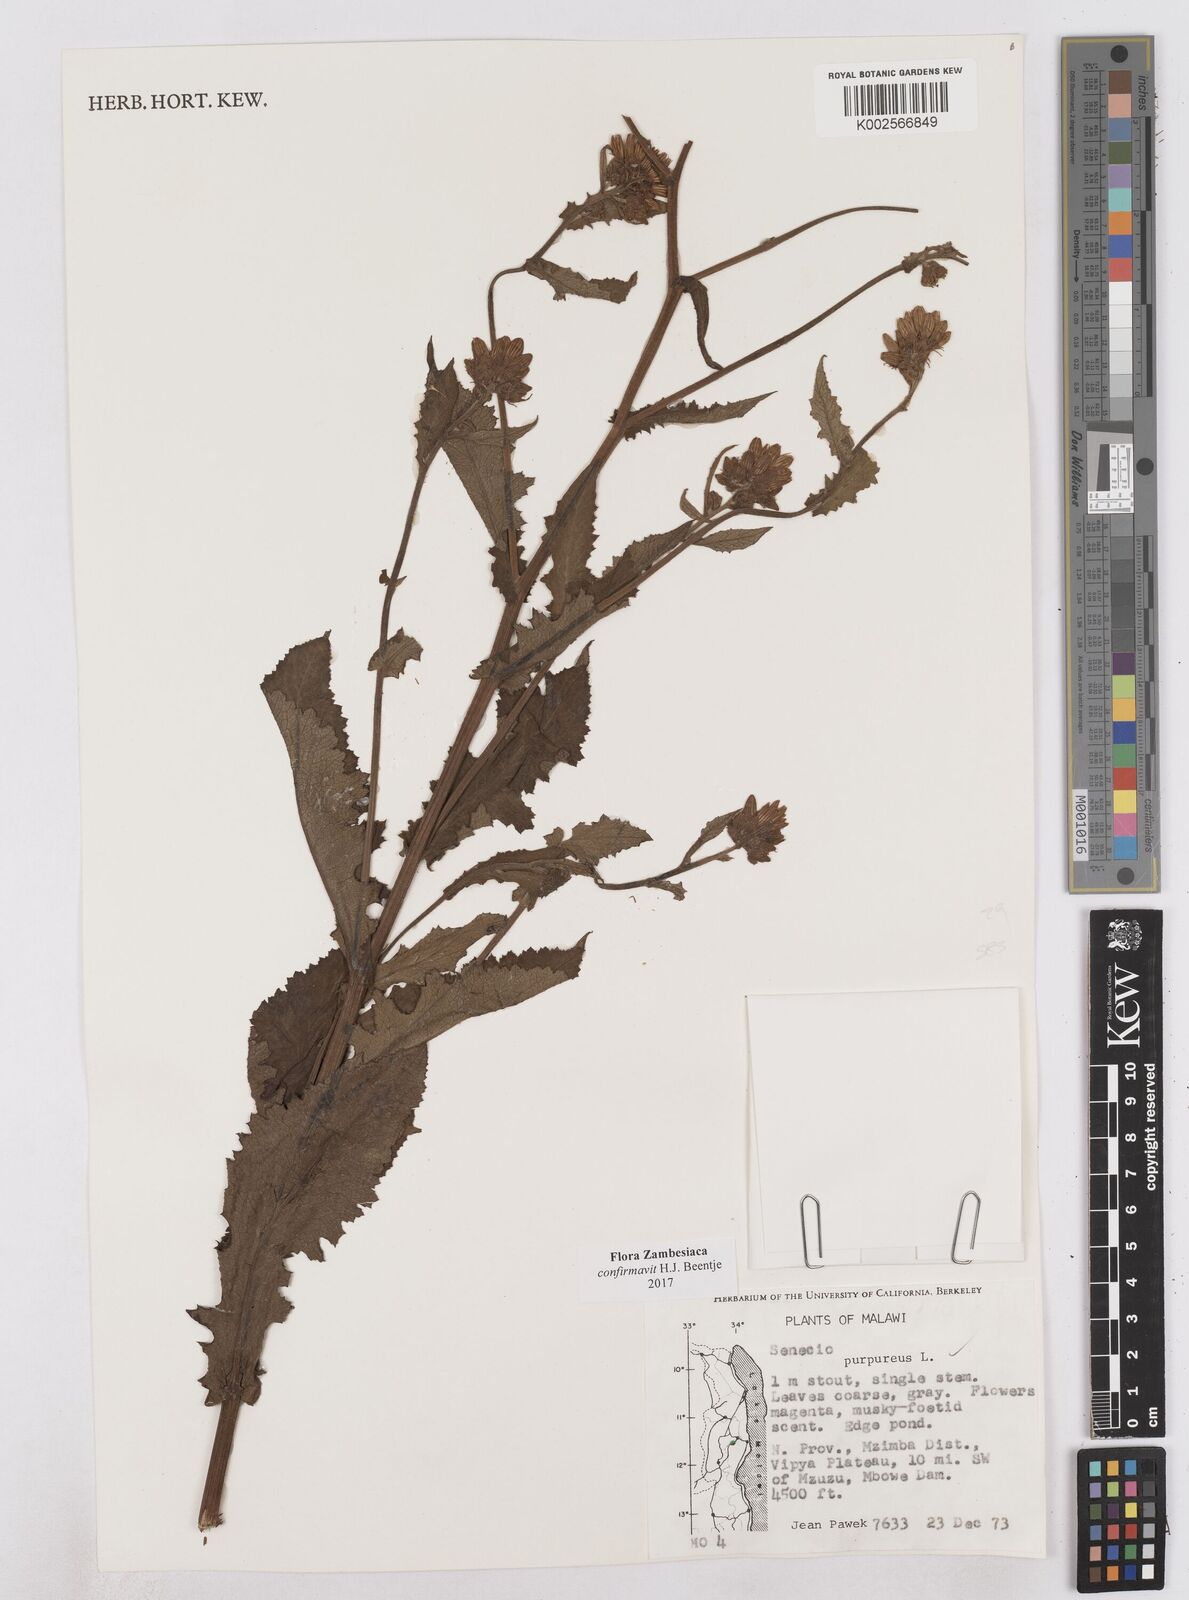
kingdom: Plantae
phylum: Tracheophyta
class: Magnoliopsida
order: Asterales
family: Asteraceae
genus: Senecio
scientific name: Senecio purpureus
